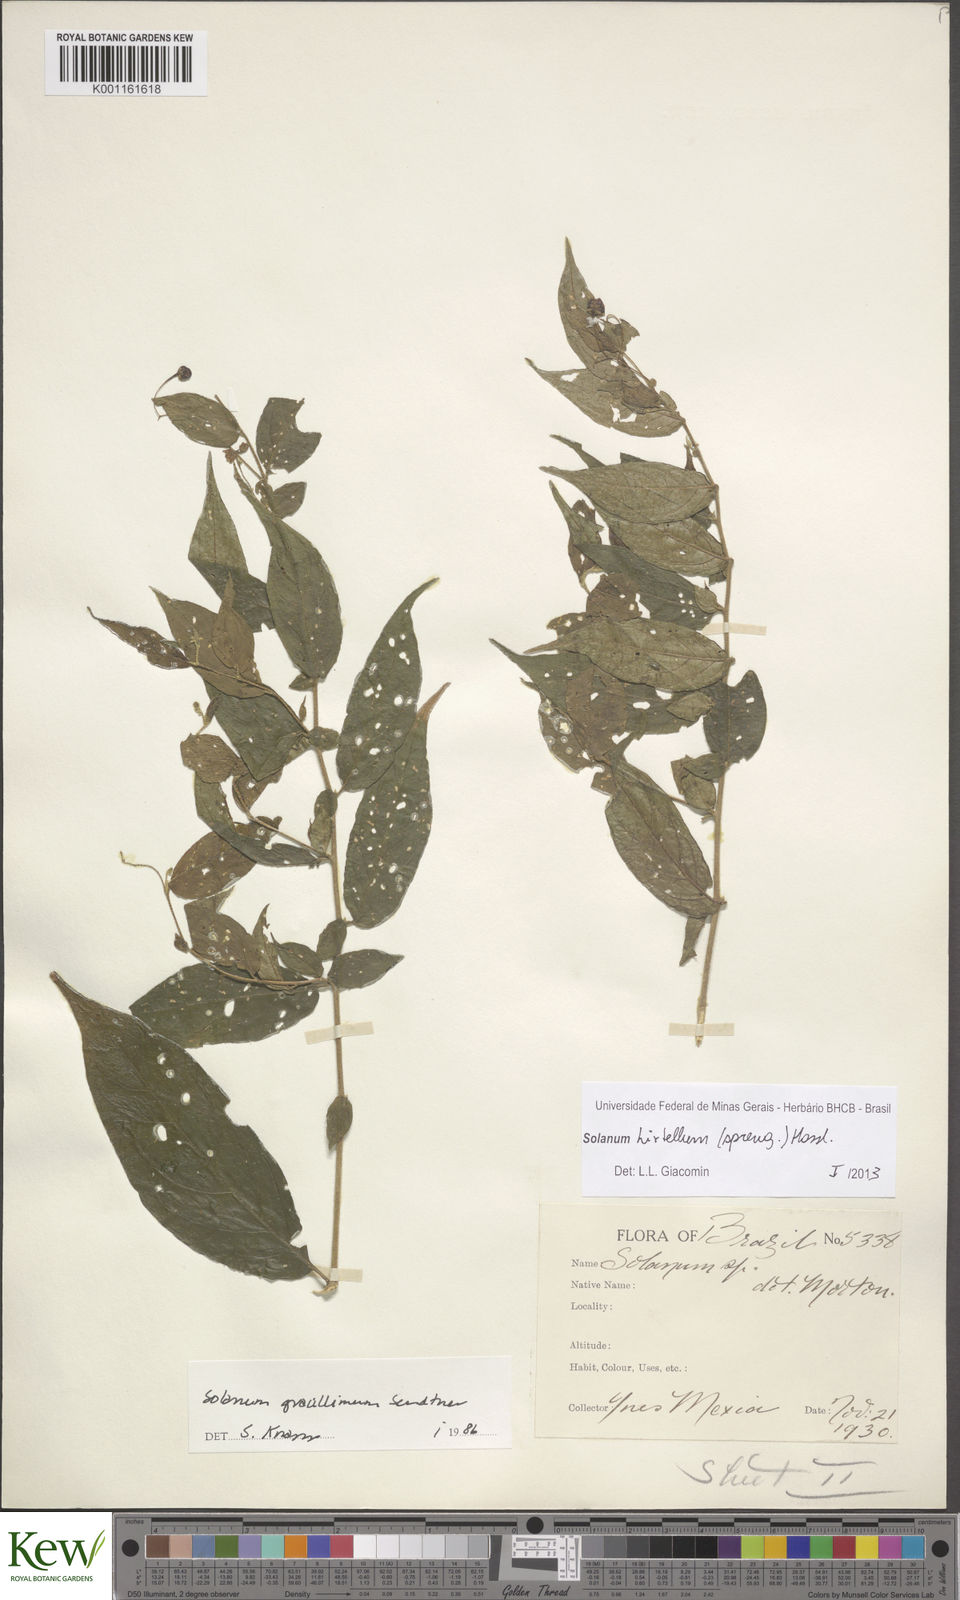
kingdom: Plantae
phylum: Tracheophyta
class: Magnoliopsida
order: Solanales
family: Solanaceae
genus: Solanum
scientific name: Solanum hirtellum
